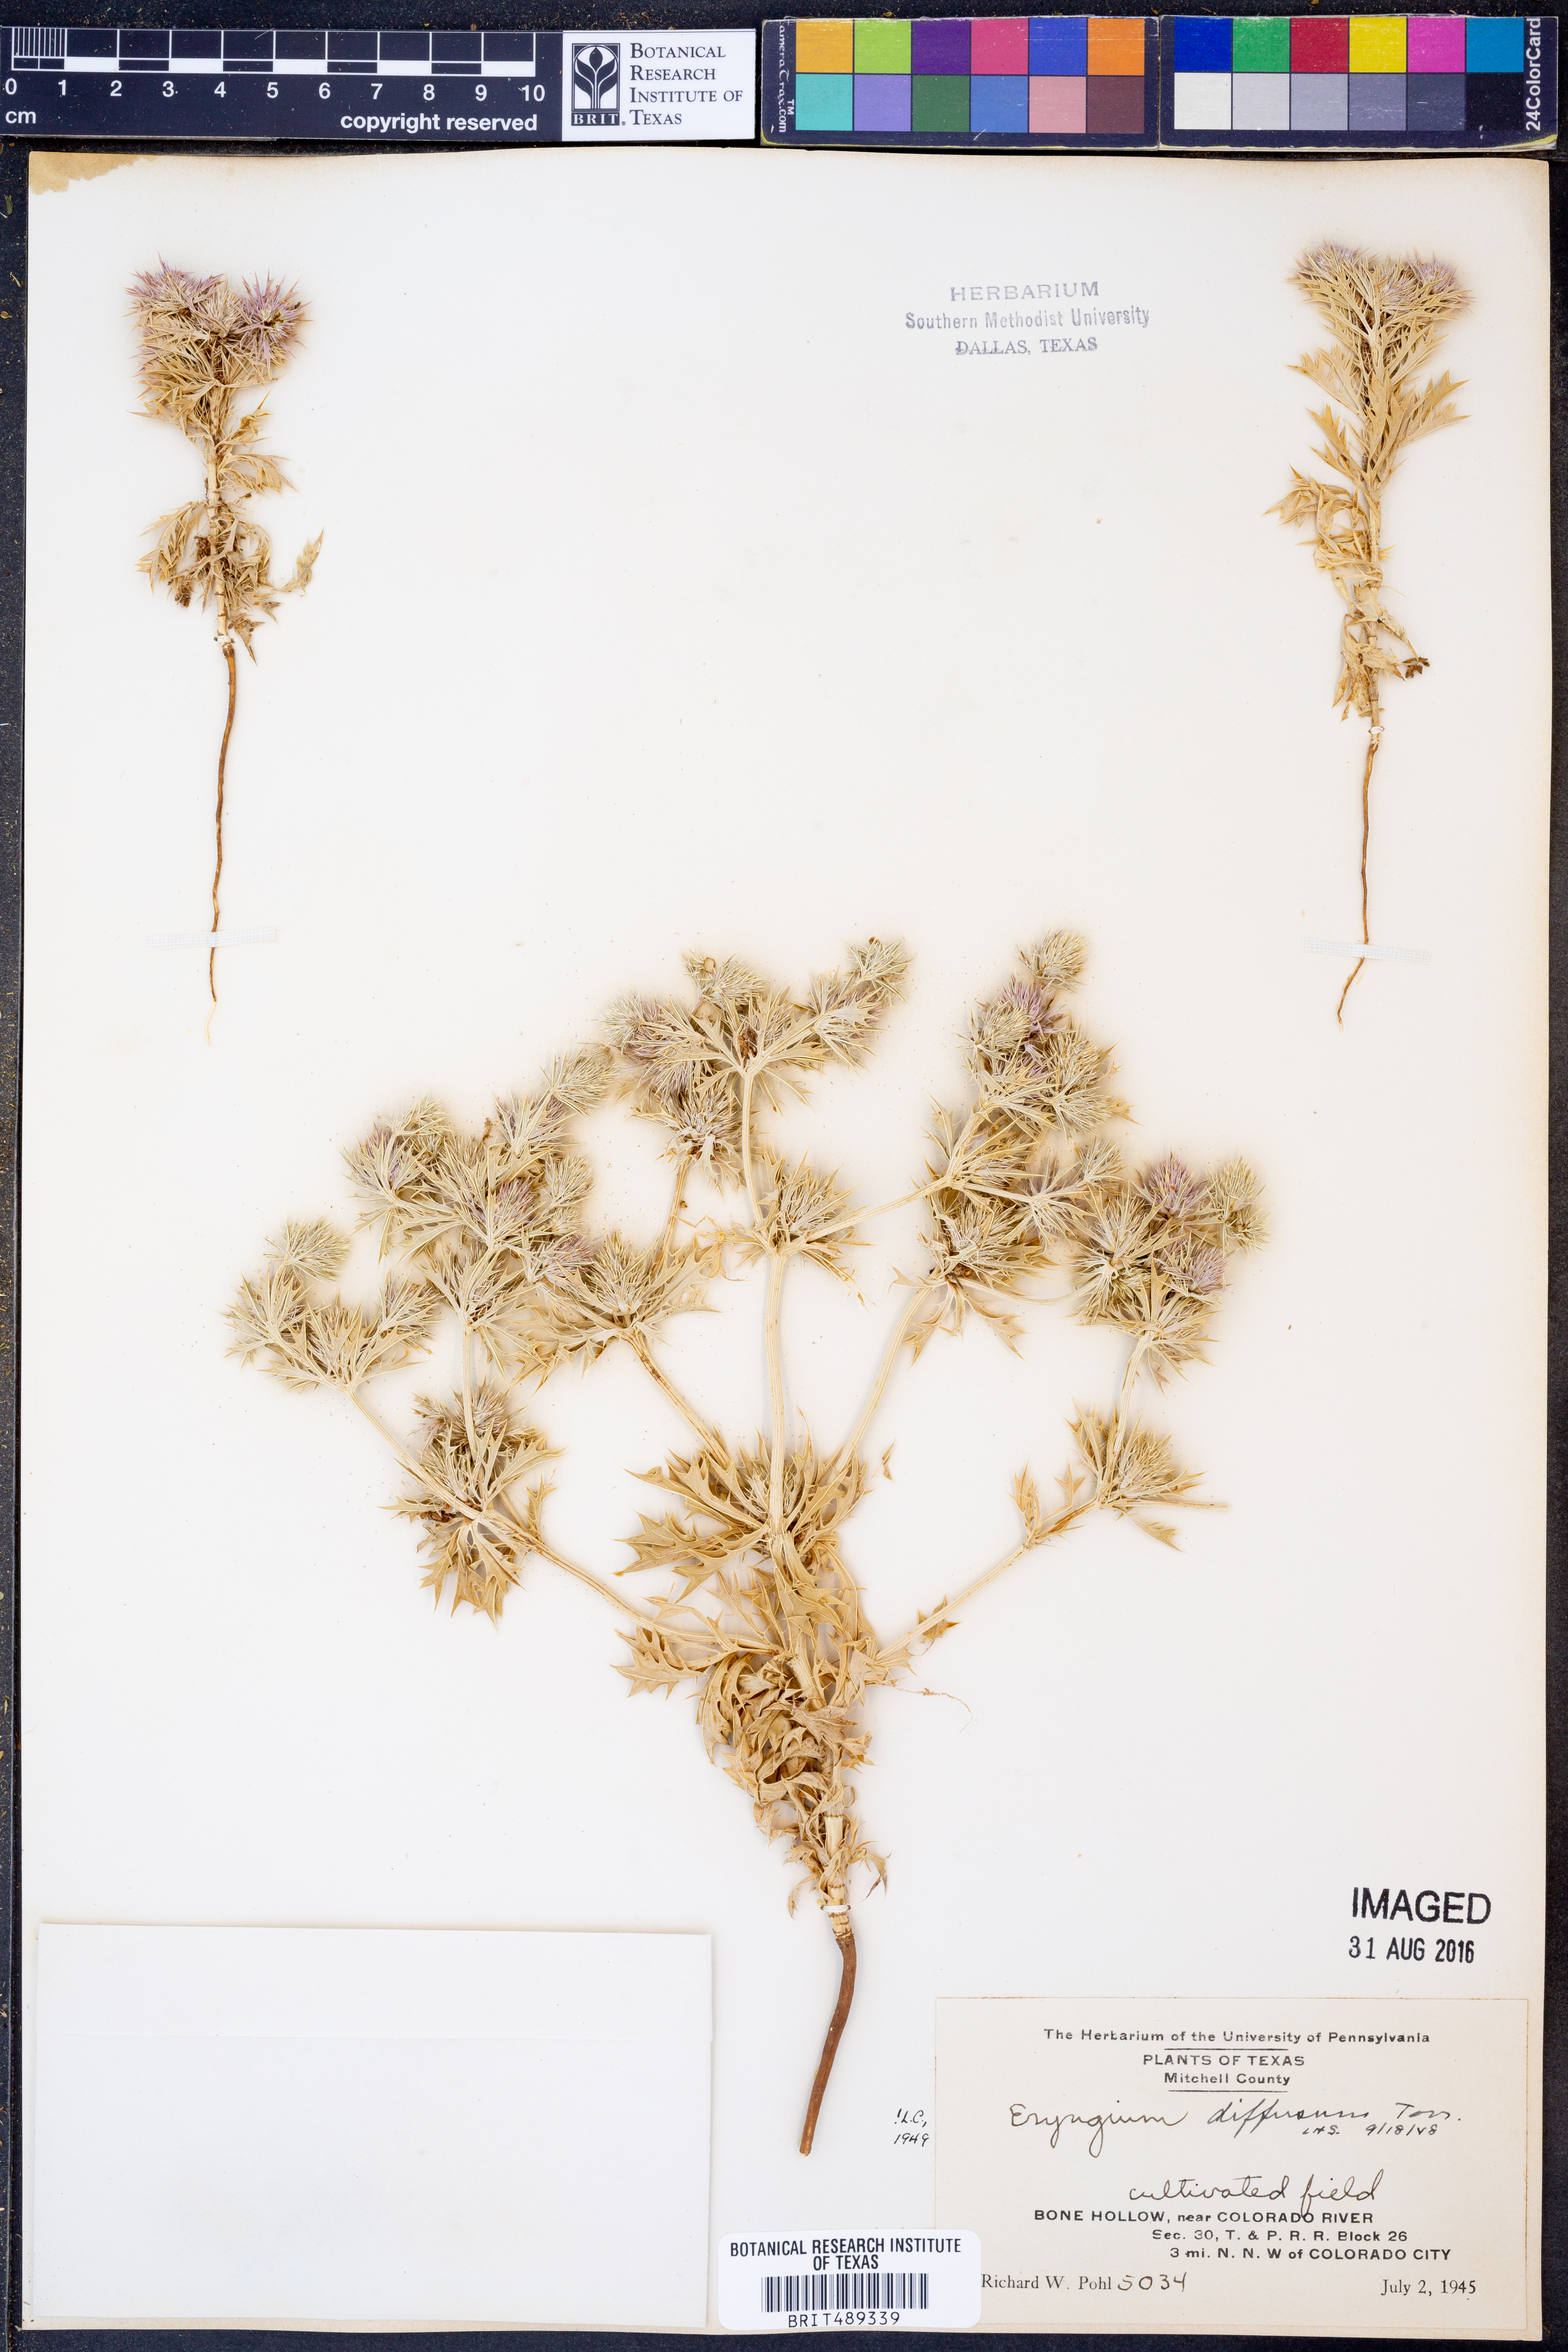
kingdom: Plantae
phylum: Tracheophyta
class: Magnoliopsida
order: Apiales
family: Apiaceae
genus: Eryngium
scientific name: Eryngium diffusum
